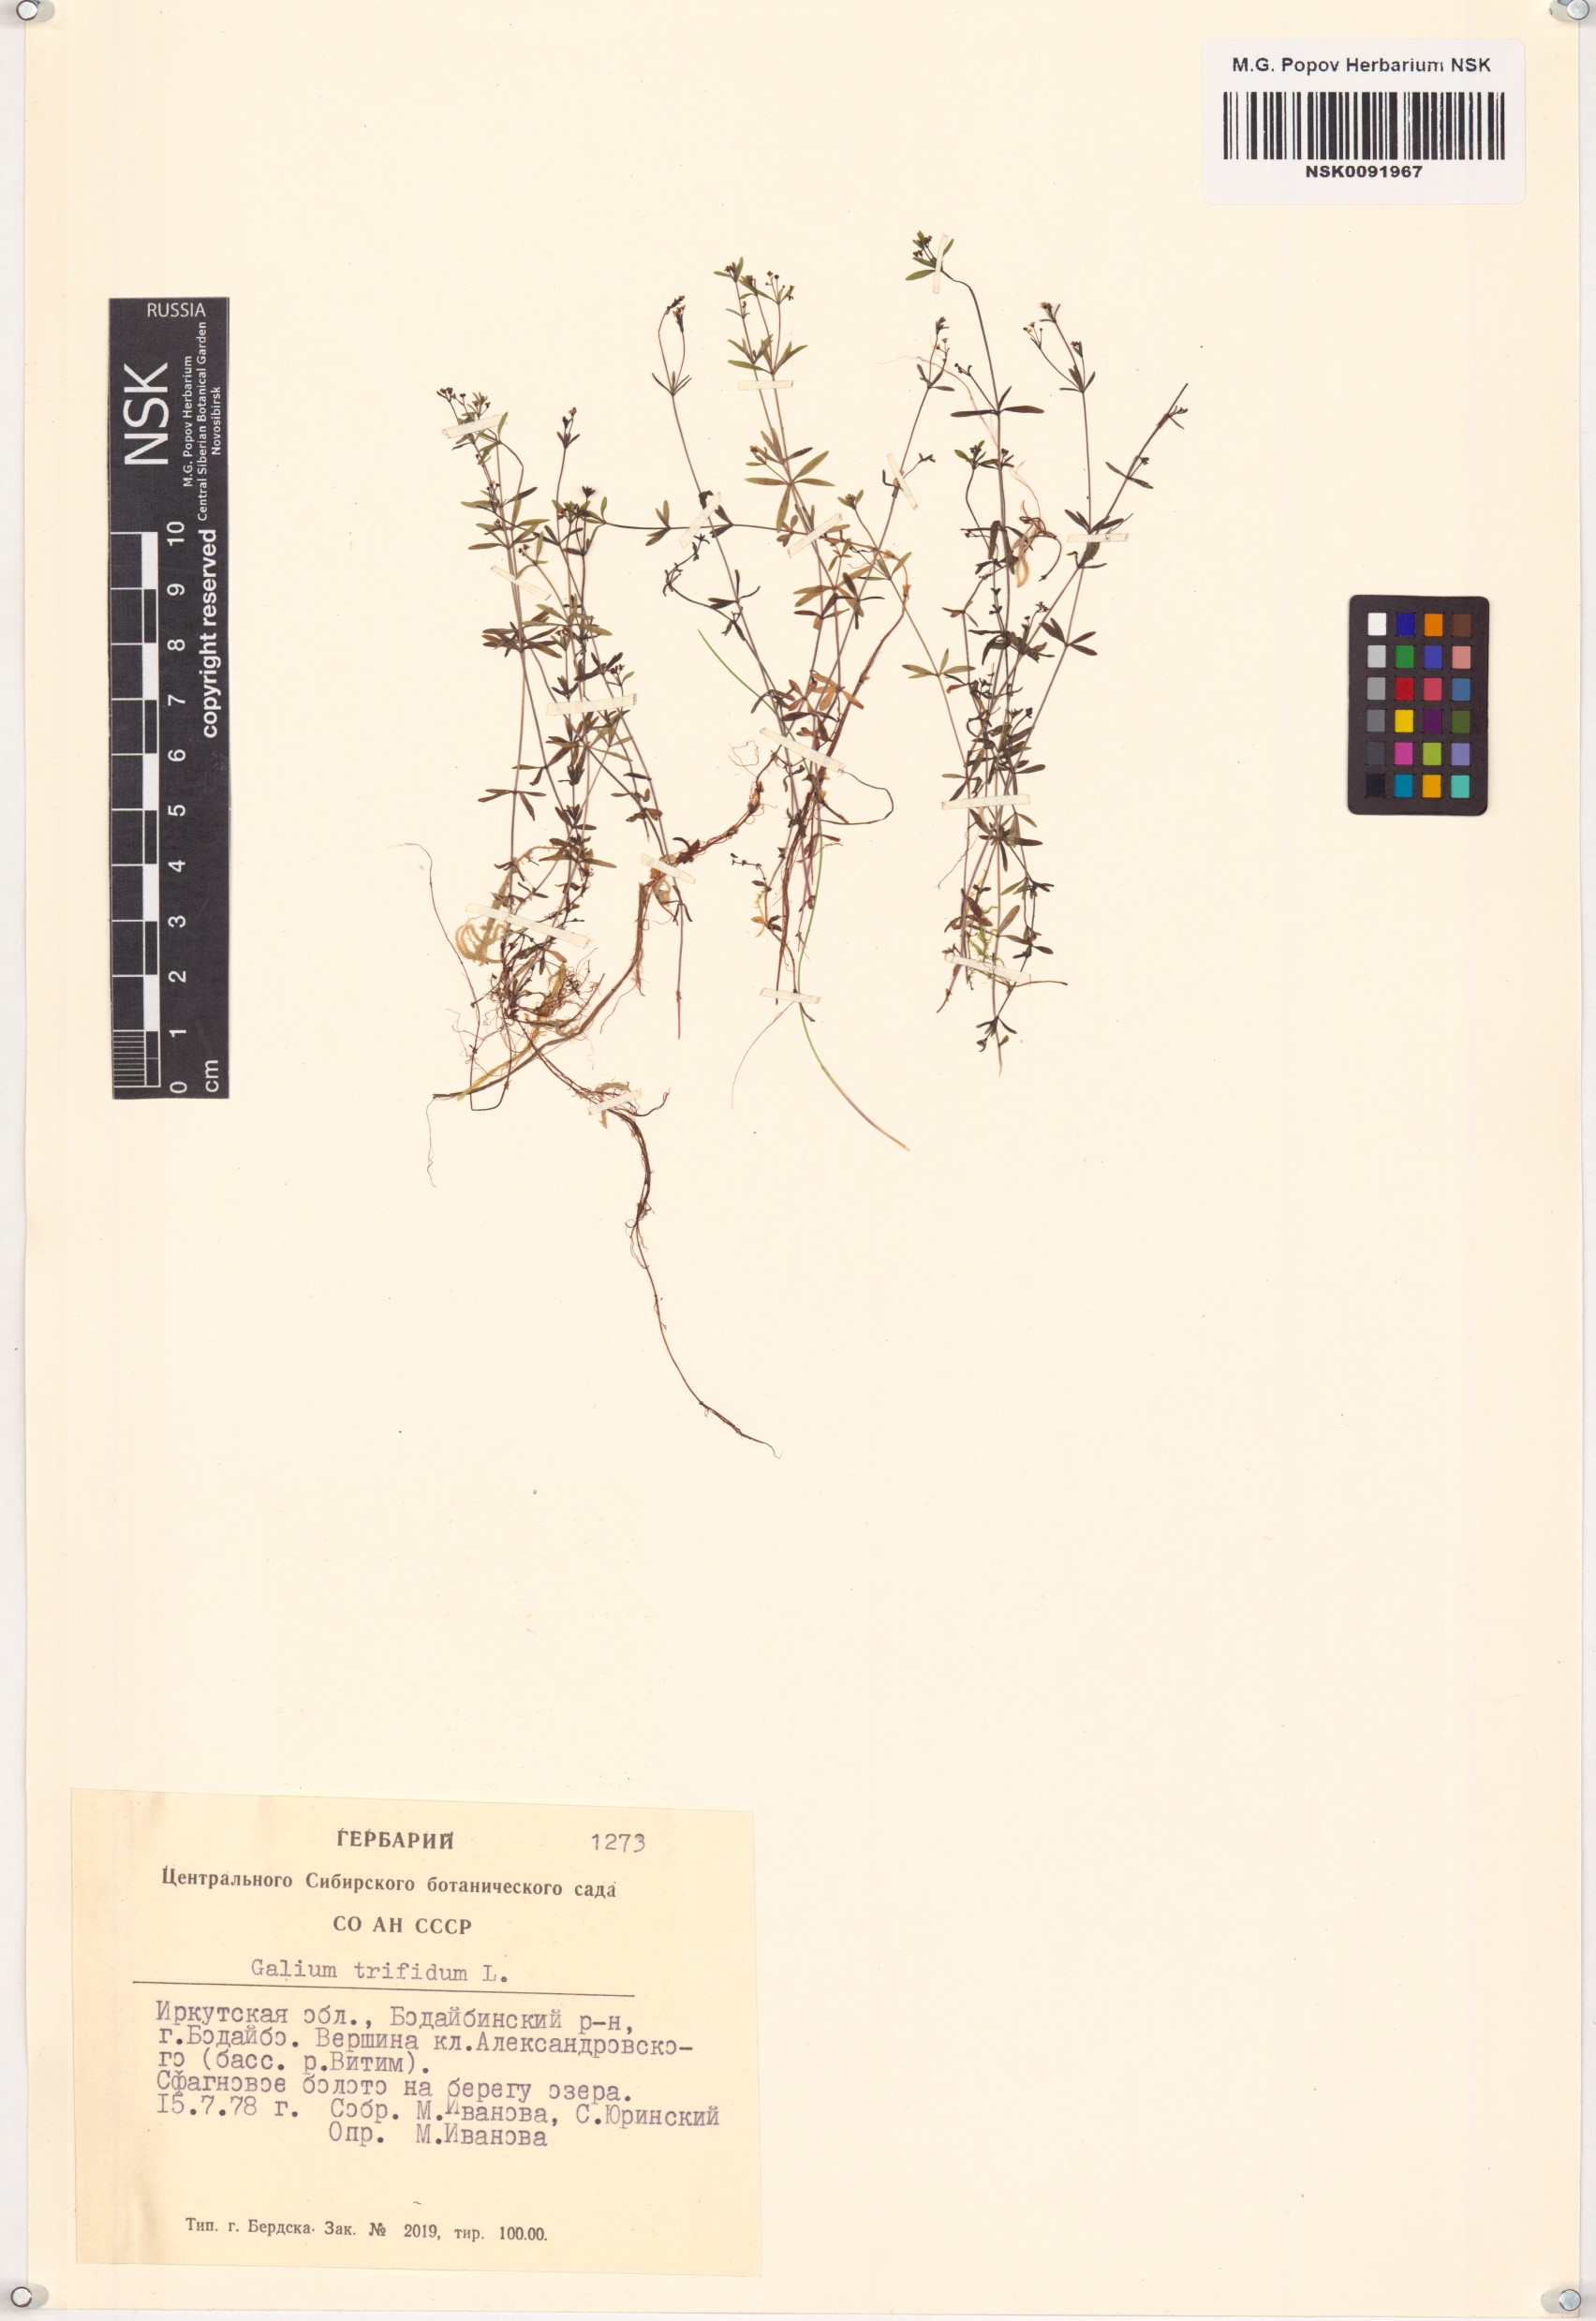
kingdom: Plantae
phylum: Tracheophyta
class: Magnoliopsida
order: Gentianales
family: Rubiaceae
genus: Galium
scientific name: Galium trifidum
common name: Small bedstraw
